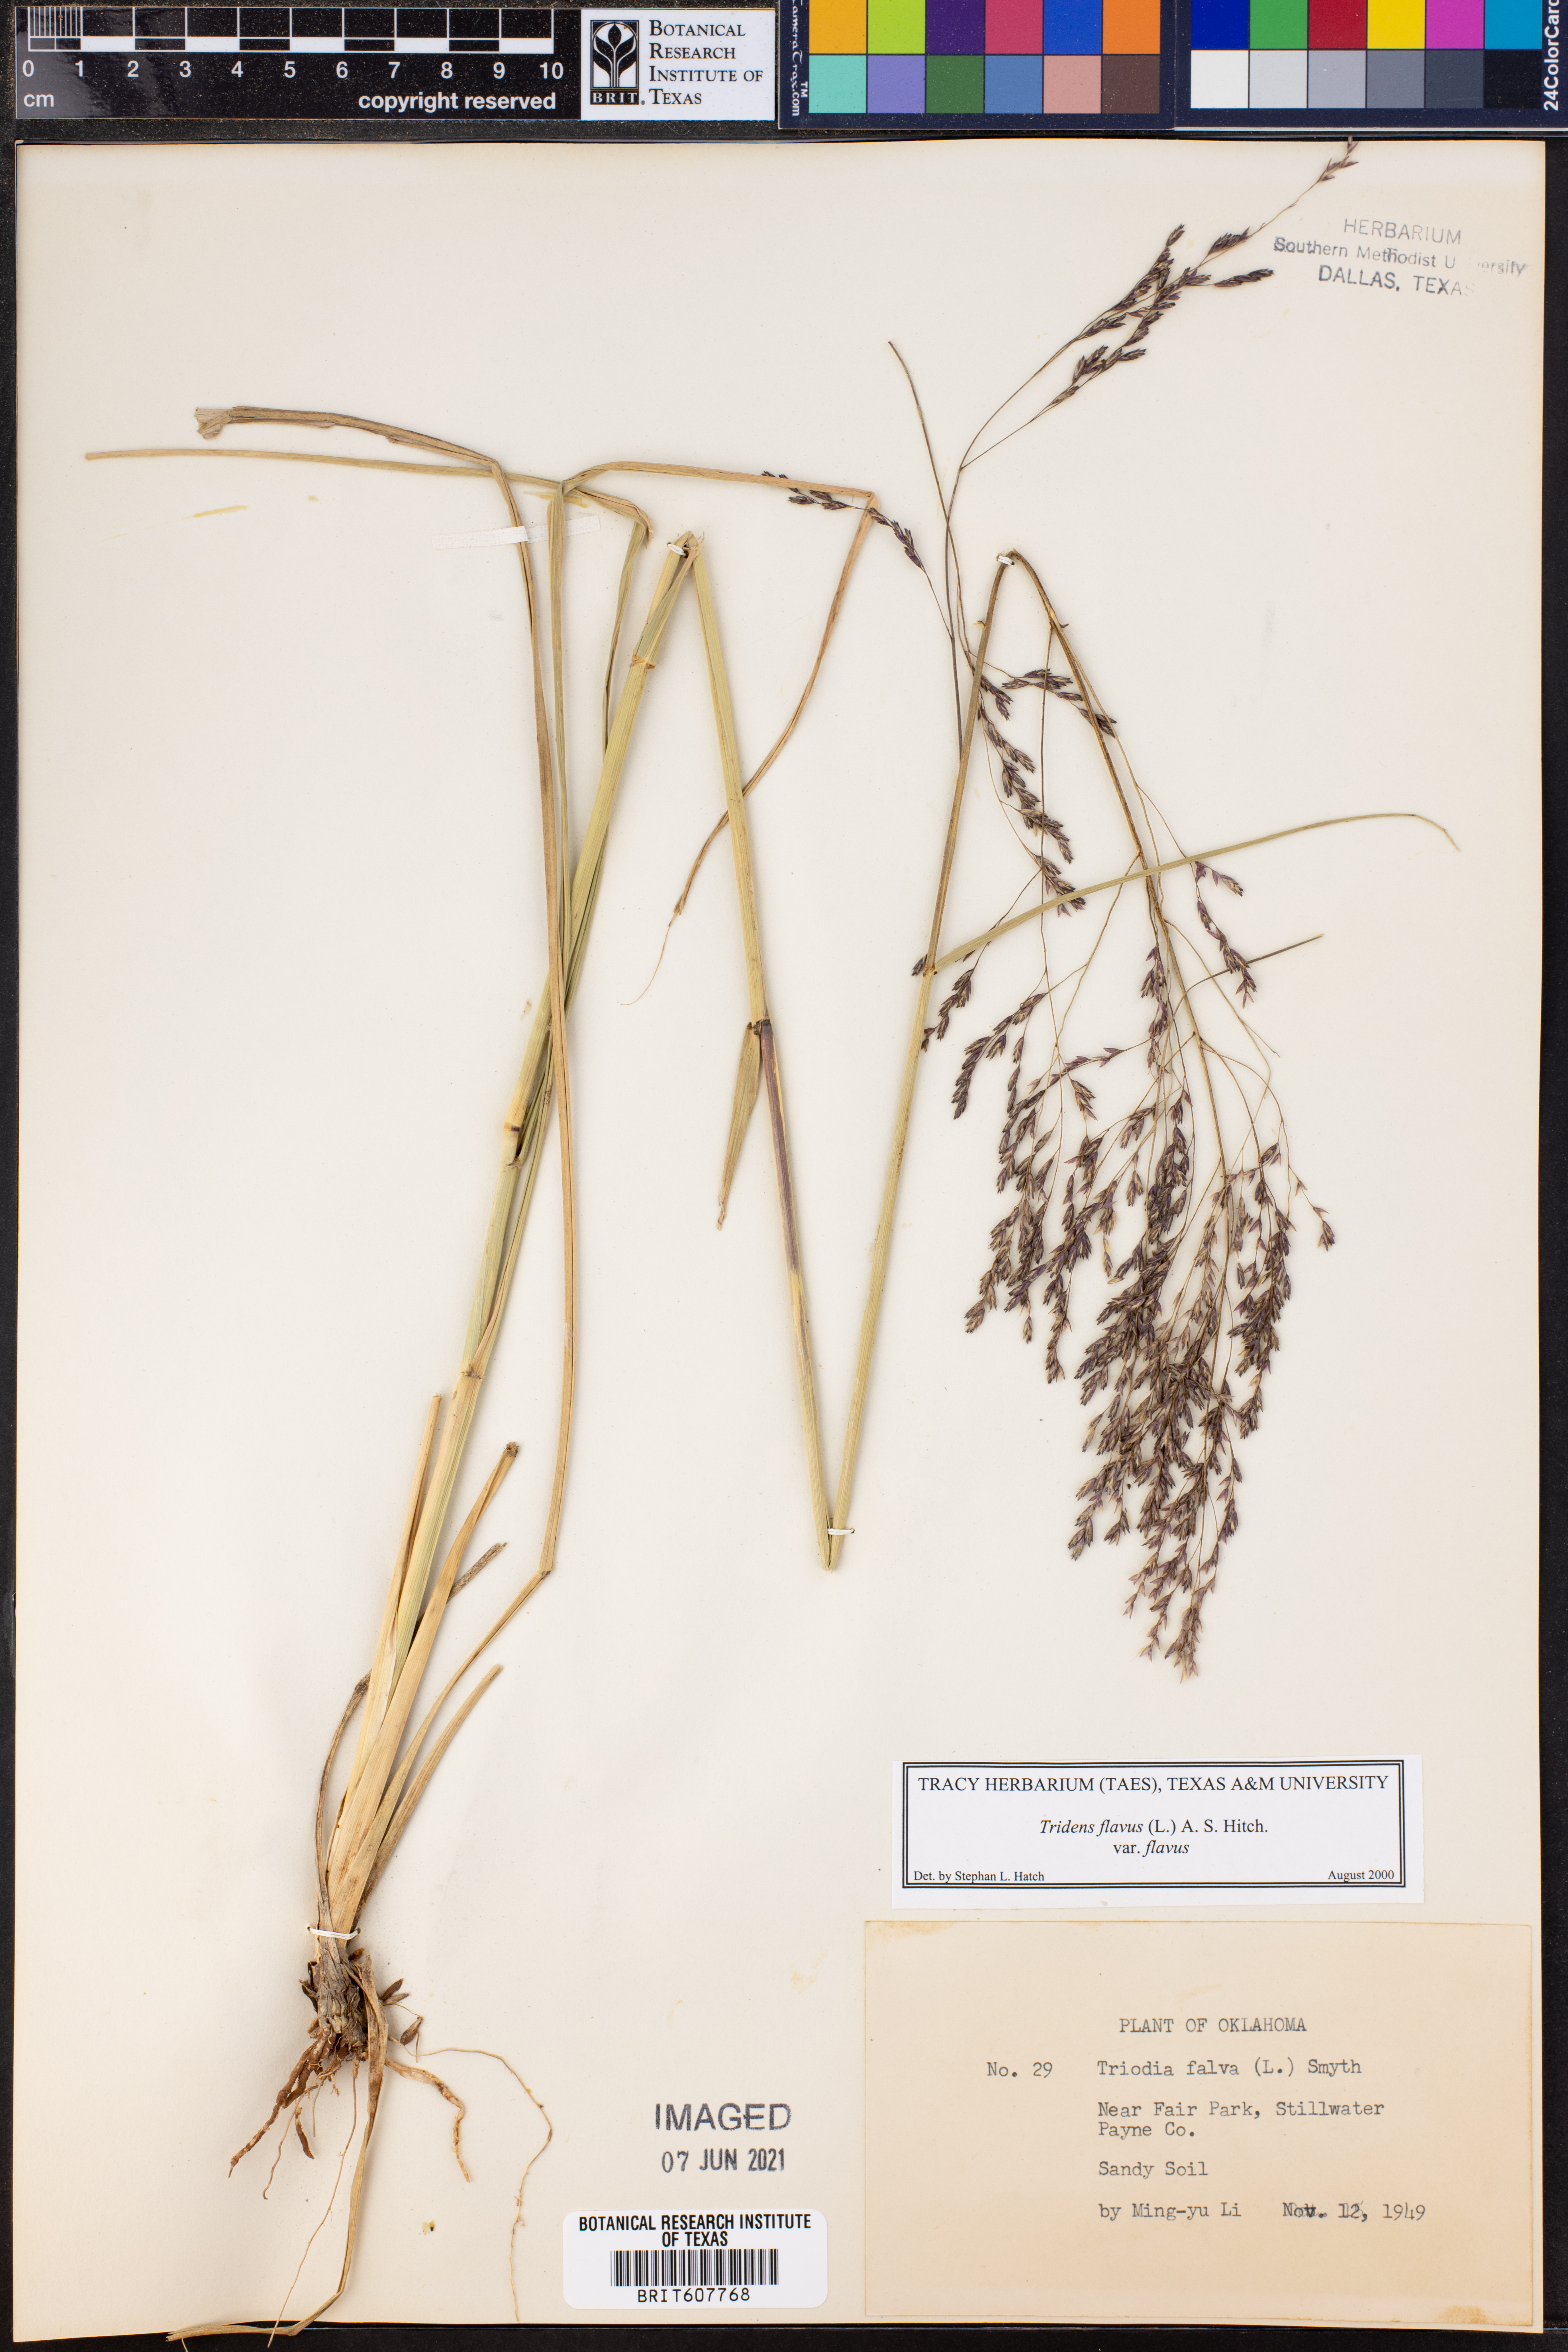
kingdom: Plantae
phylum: Tracheophyta
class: Liliopsida
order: Poales
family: Poaceae
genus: Tridens
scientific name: Tridens flavus
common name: Purpletop
